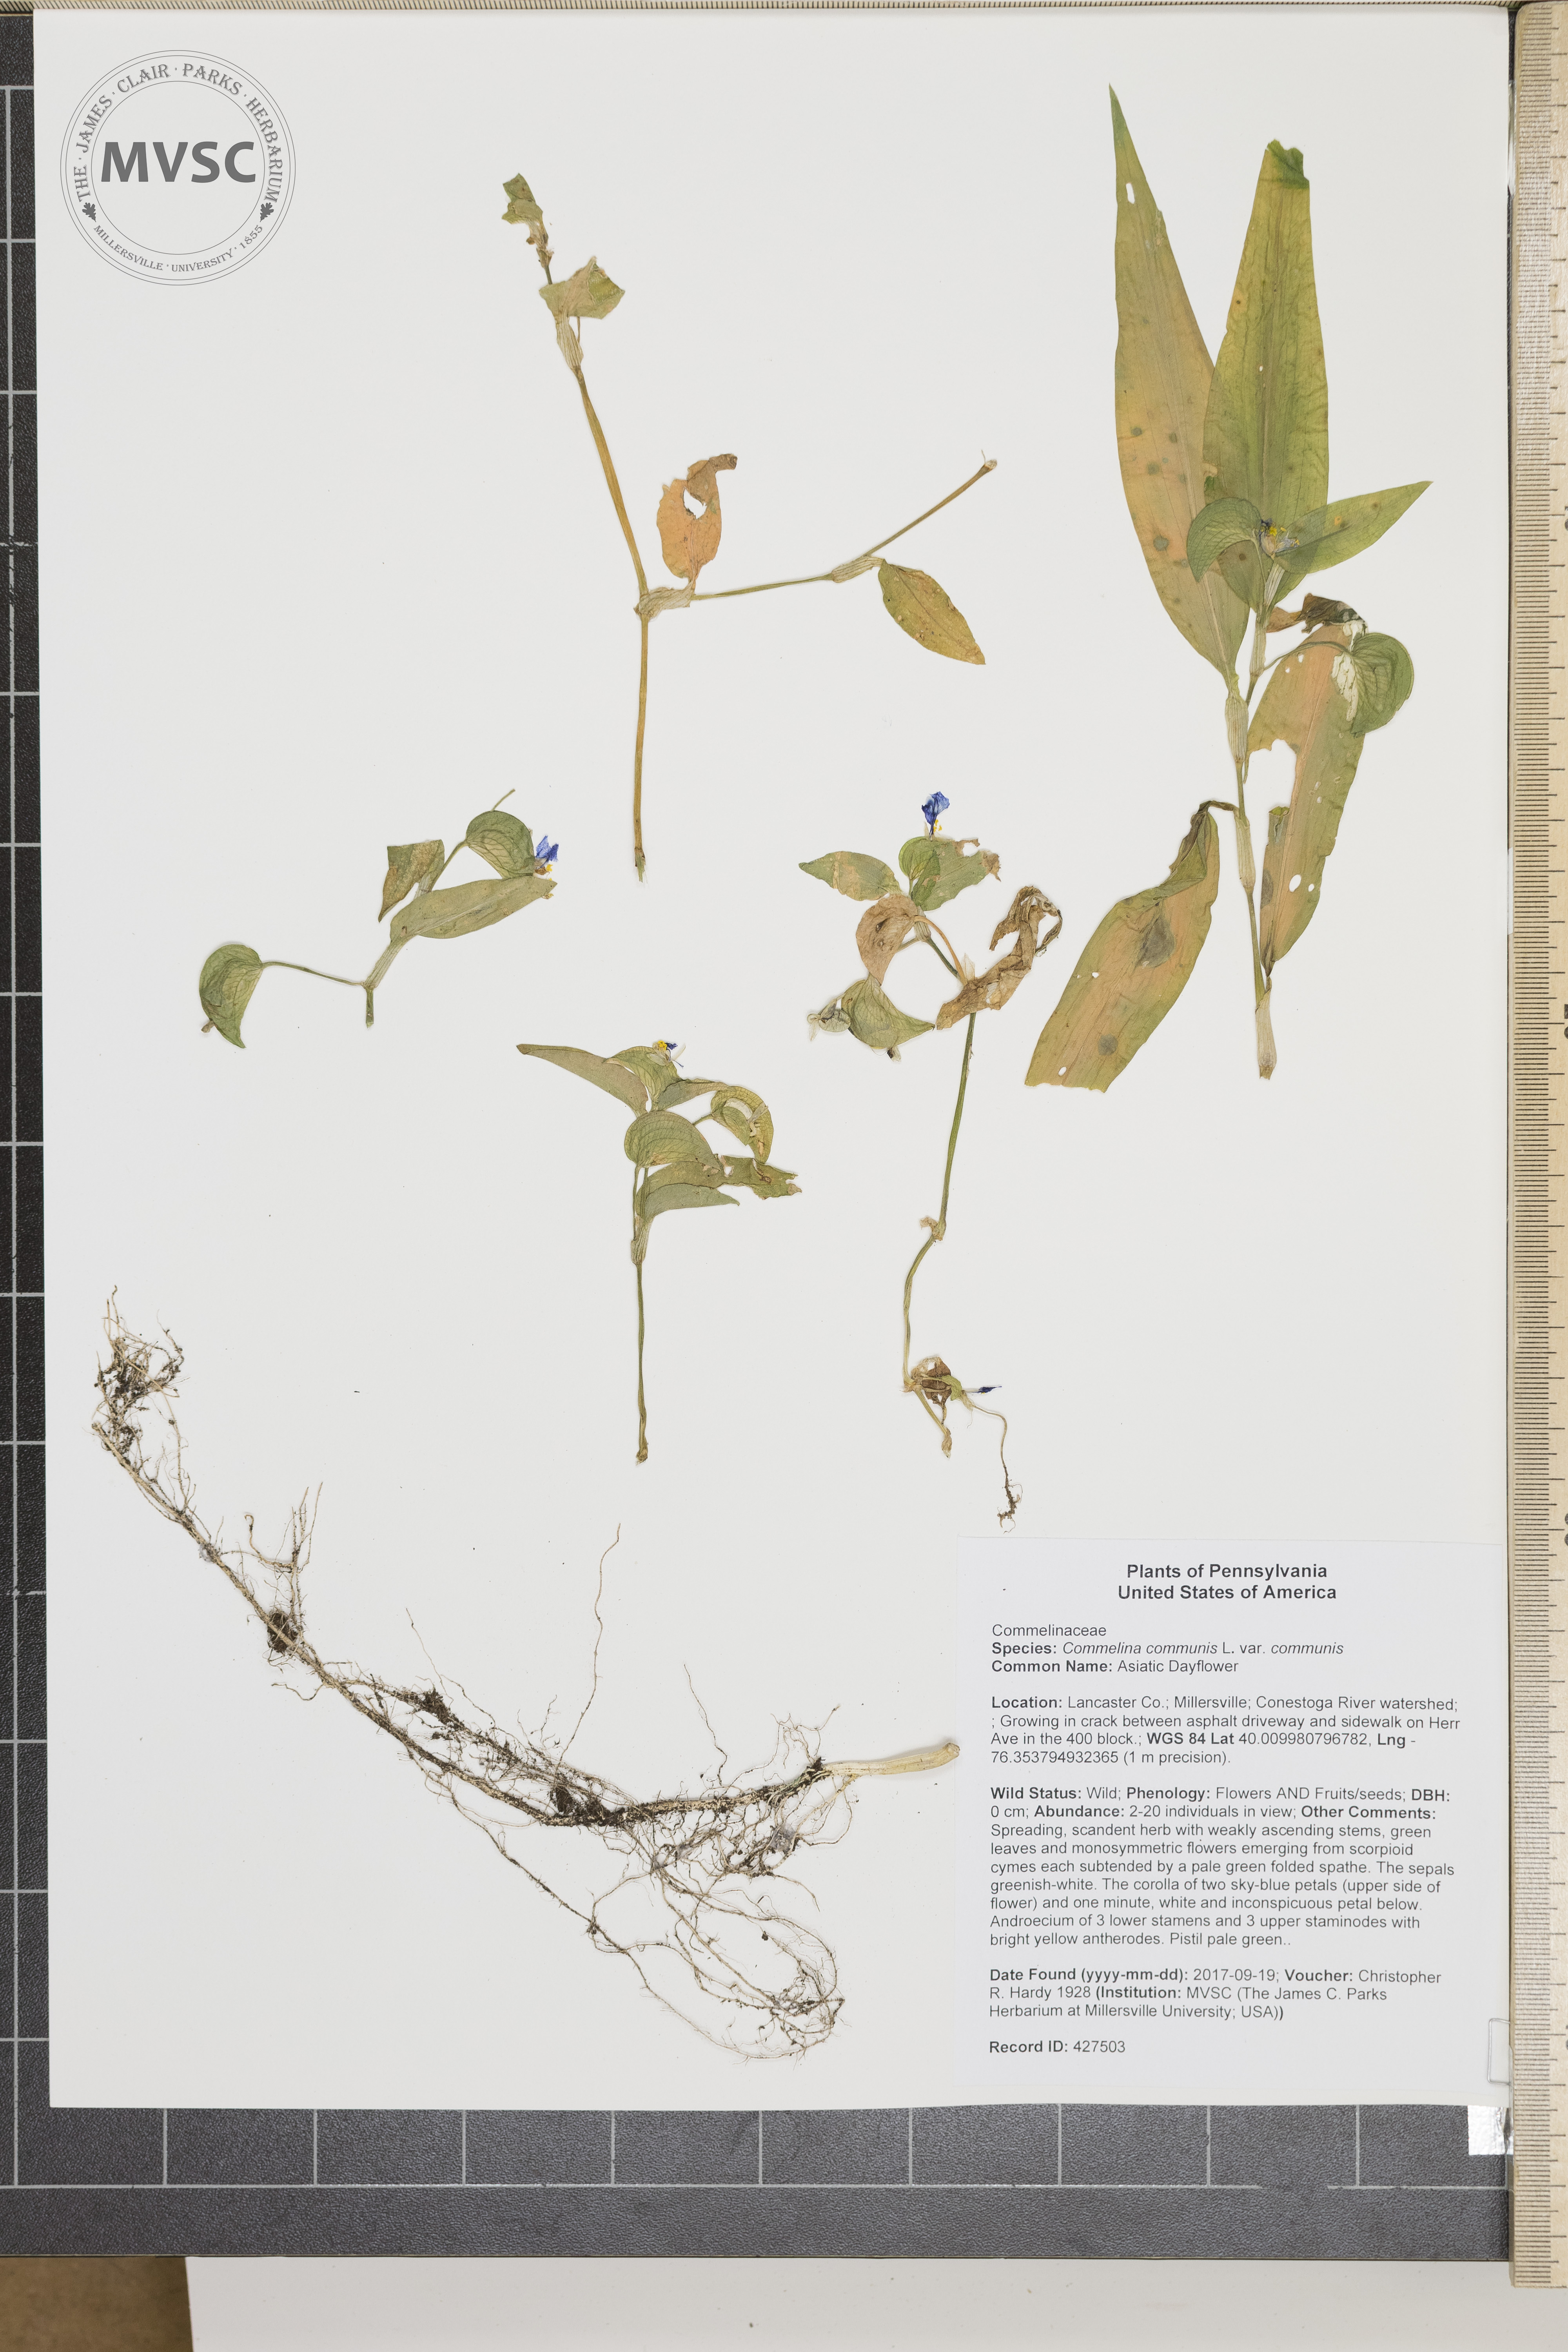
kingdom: Plantae
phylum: Tracheophyta
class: Liliopsida
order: Commelinales
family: Commelinaceae
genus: Commelina
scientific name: Commelina communis
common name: Asiatic Dayflower
